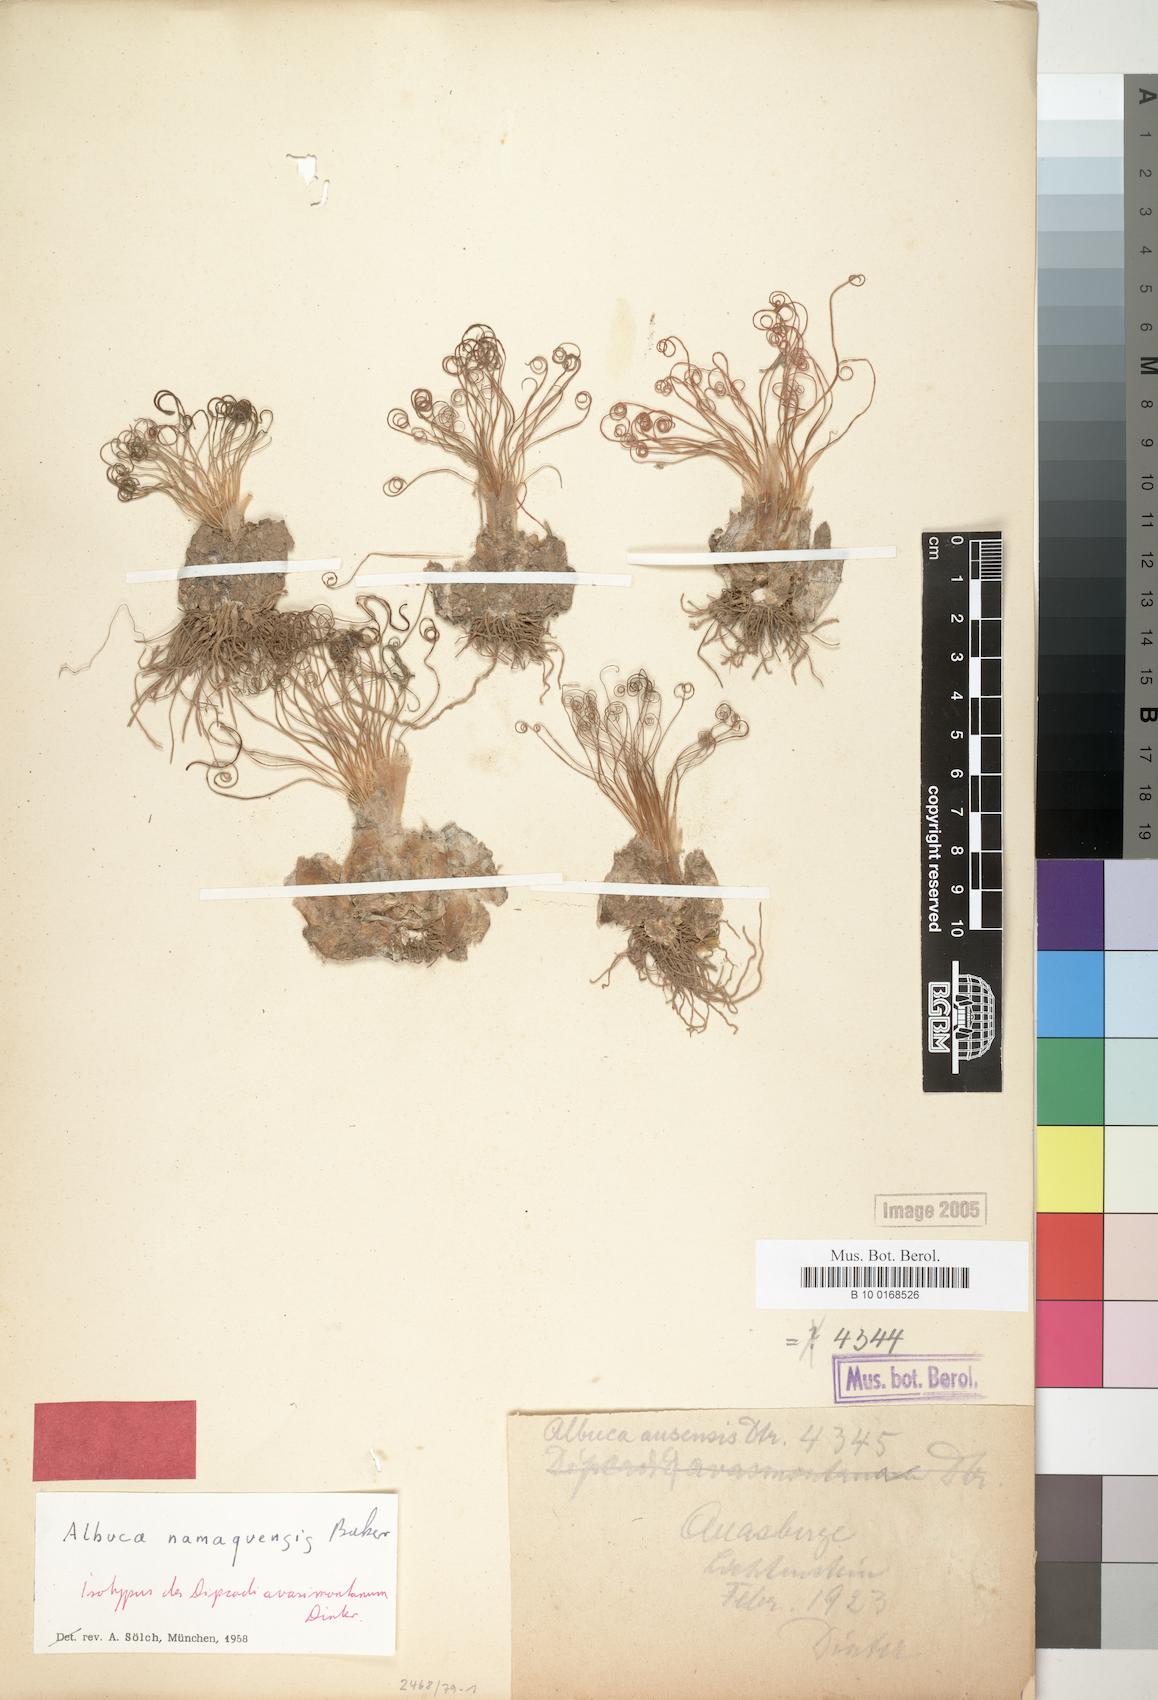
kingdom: Plantae
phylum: Tracheophyta
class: Liliopsida
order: Asparagales
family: Asparagaceae
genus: Albuca
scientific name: Albuca namaquensis
